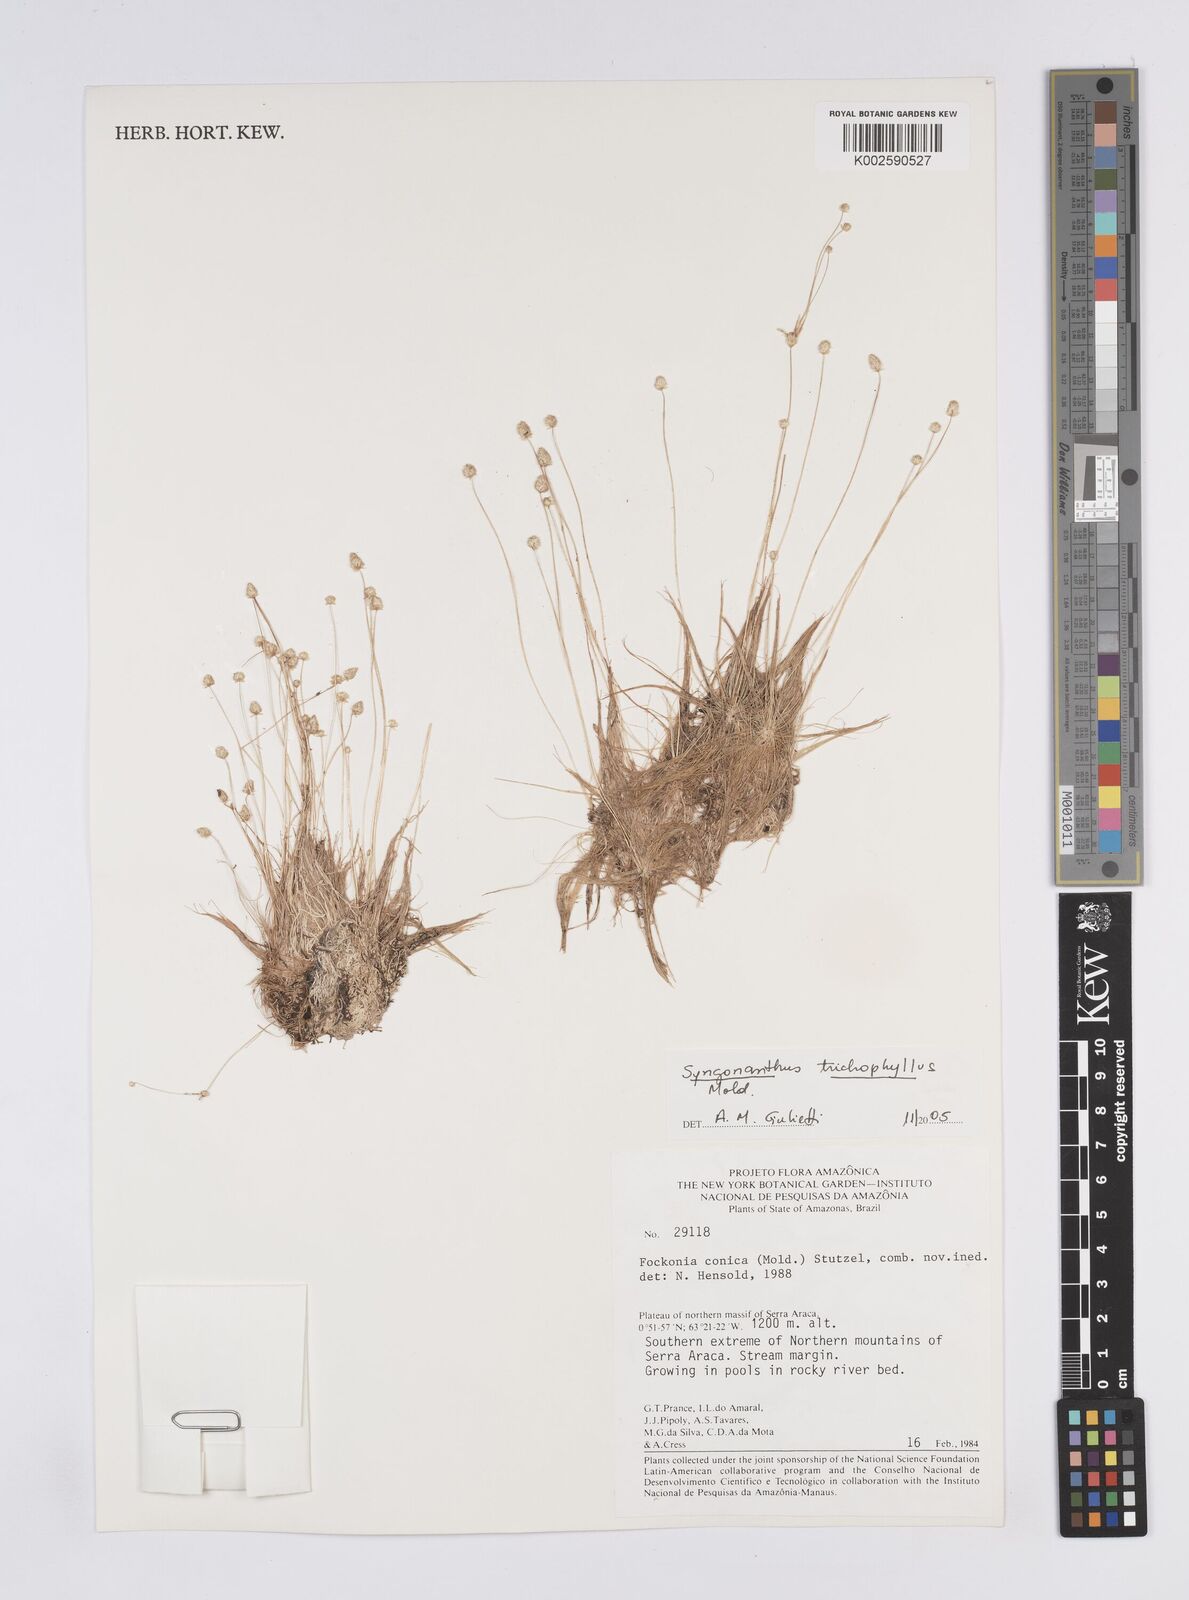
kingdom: Plantae
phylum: Tracheophyta
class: Liliopsida
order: Poales
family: Eriocaulaceae
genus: Syngonanthus
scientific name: Syngonanthus trichophyllus
